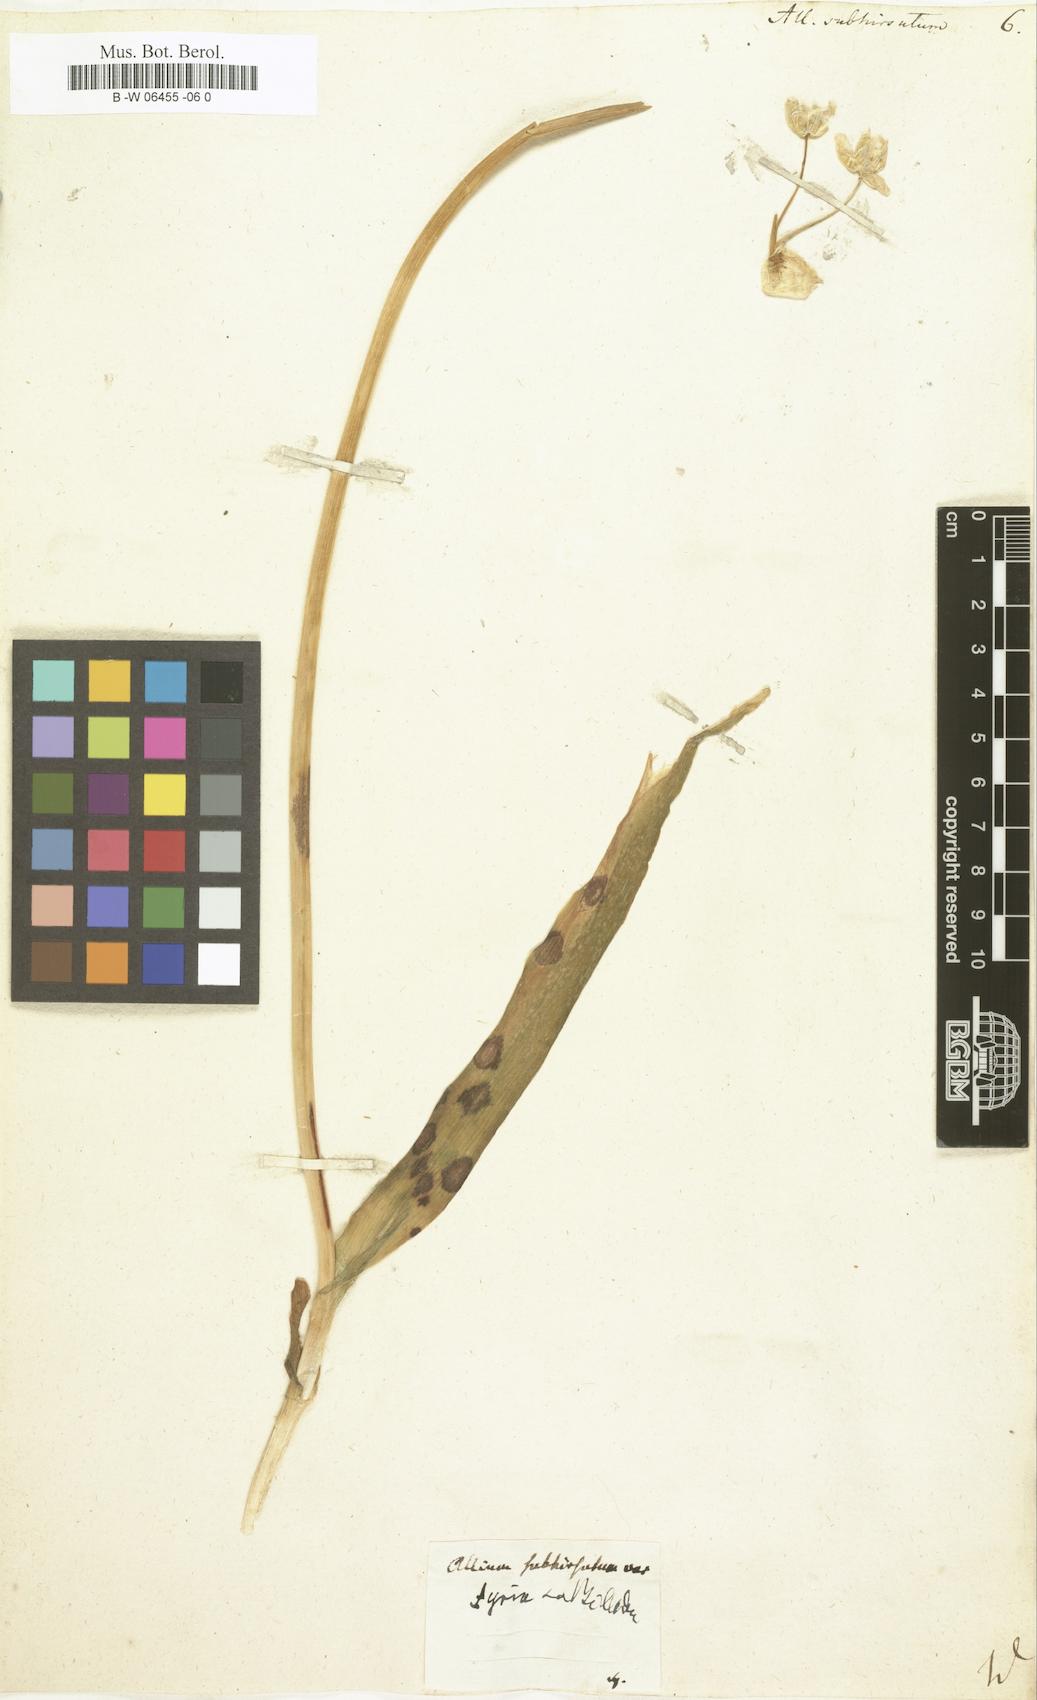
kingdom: Plantae
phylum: Tracheophyta
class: Liliopsida
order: Asparagales
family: Amaryllidaceae
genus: Allium
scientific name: Allium subhirsutum
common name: Hairy garlic
